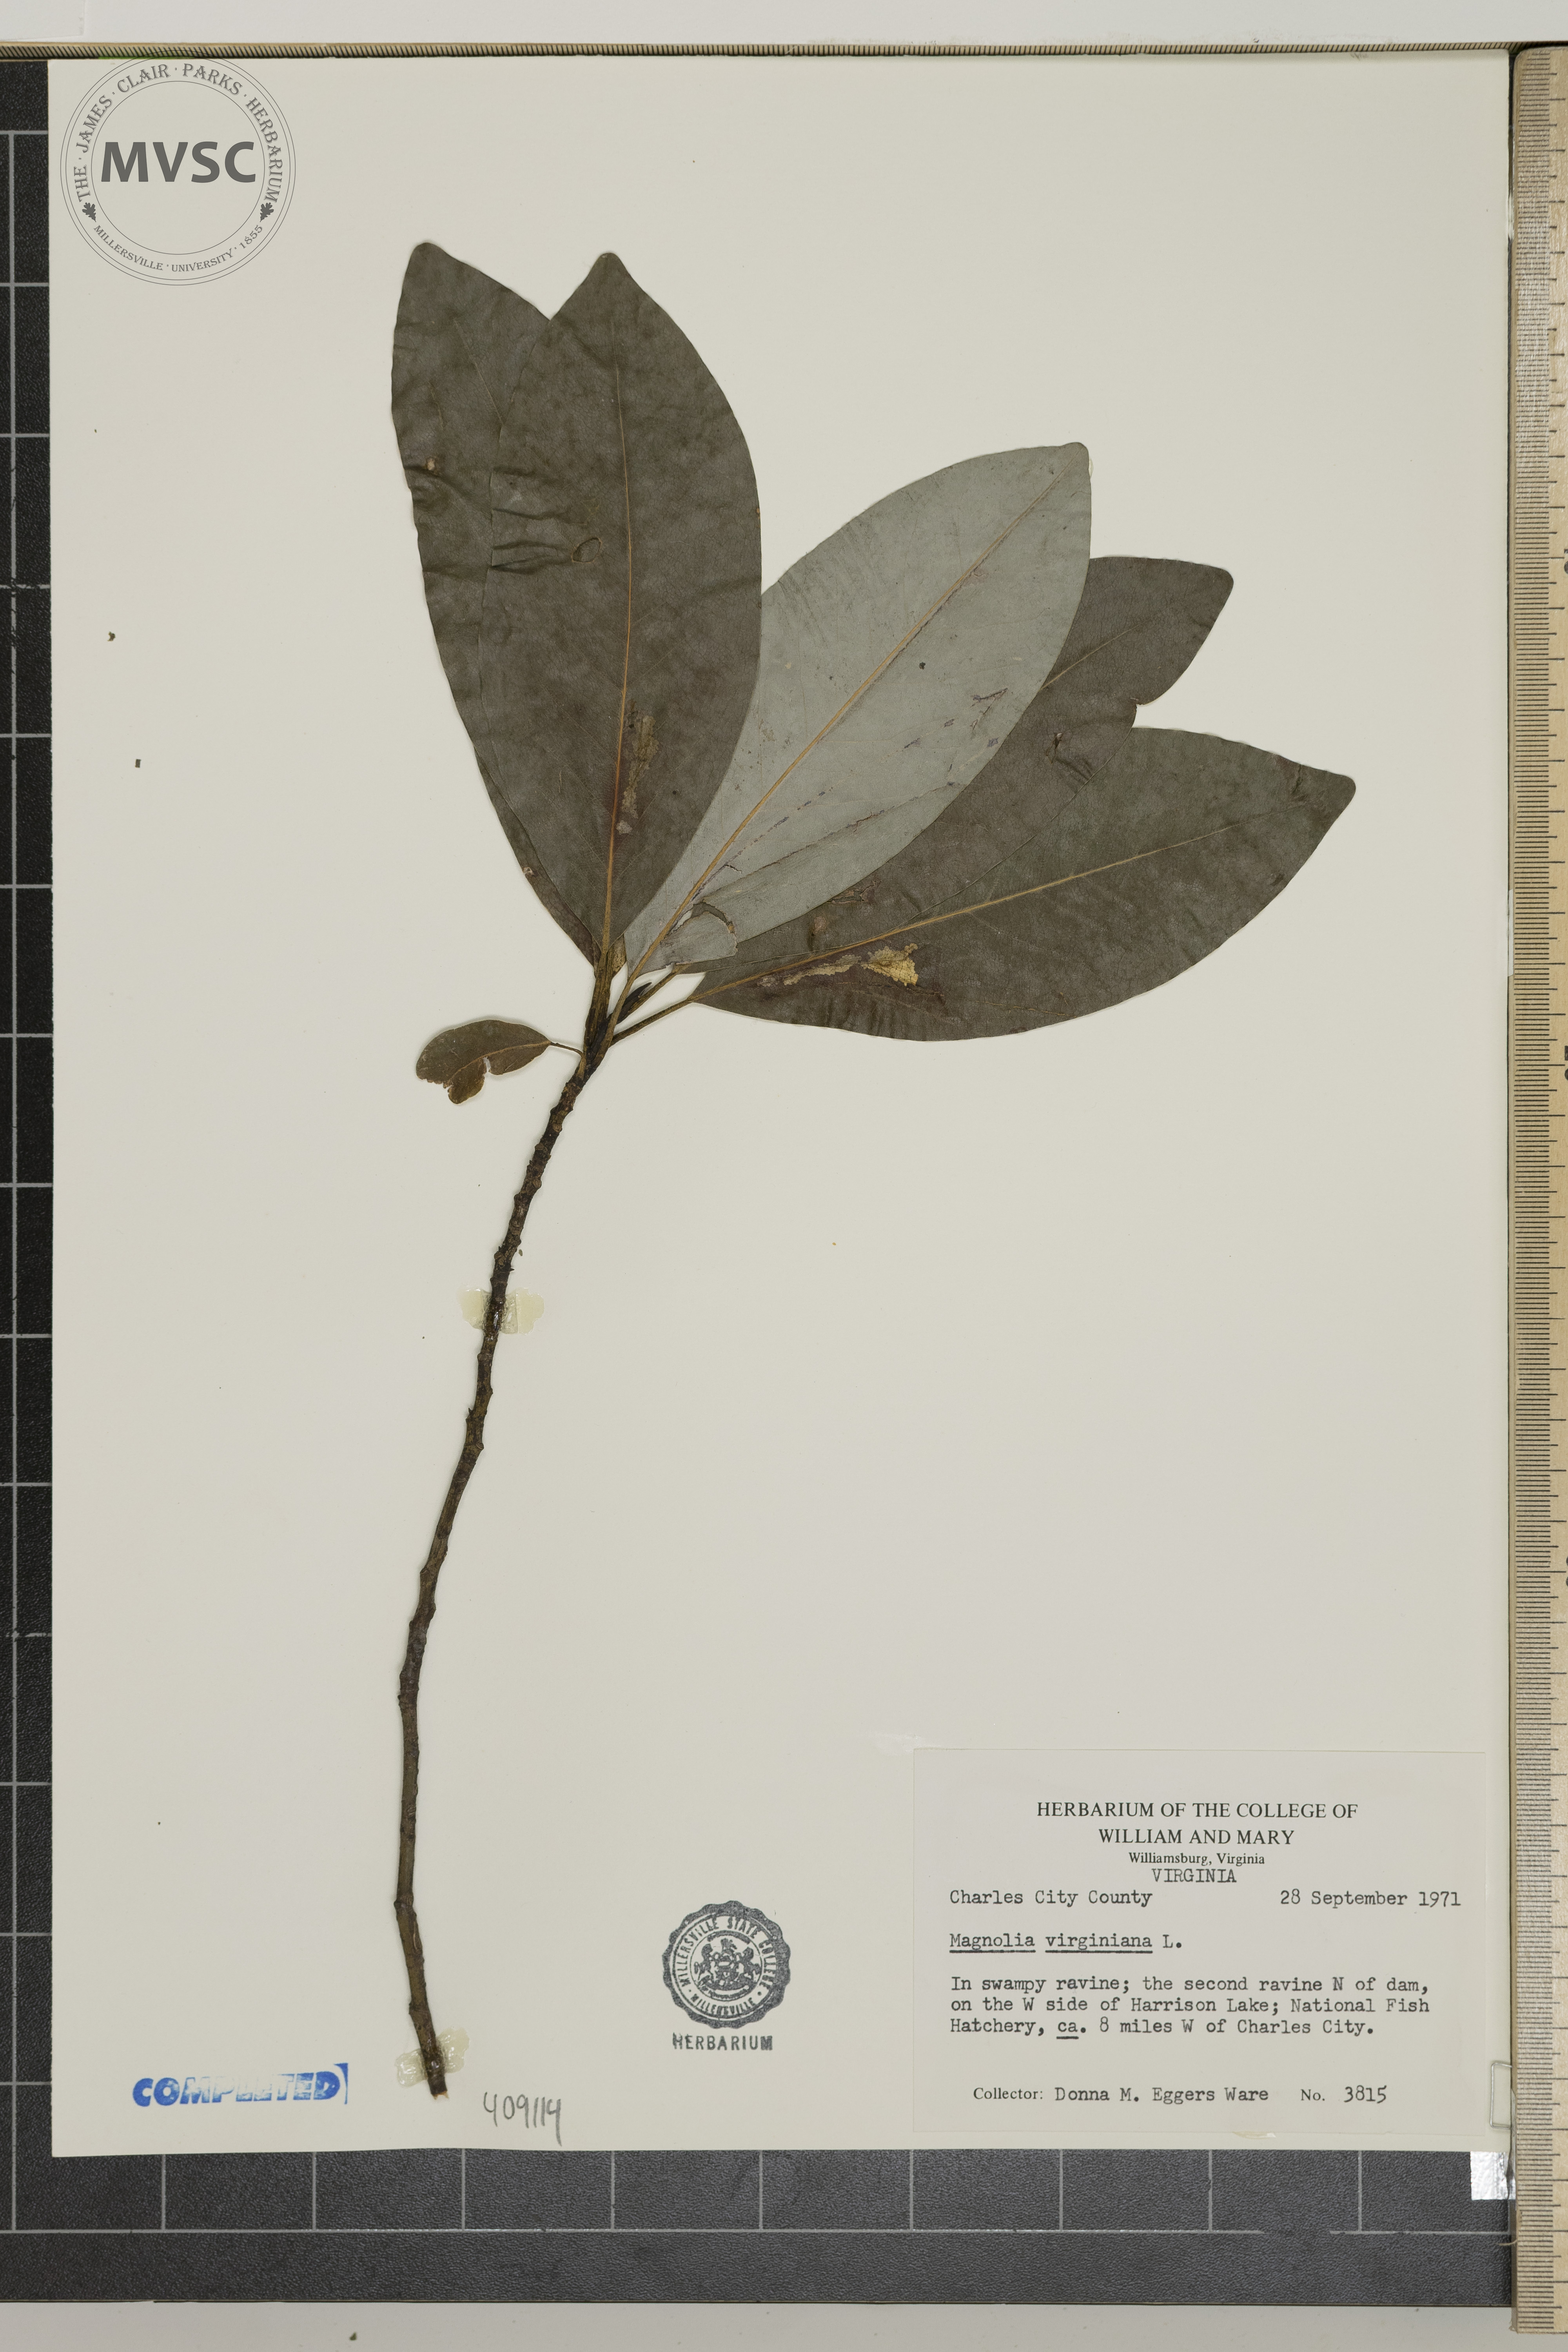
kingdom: Plantae
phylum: Tracheophyta
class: Magnoliopsida
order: Magnoliales
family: Magnoliaceae
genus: Magnolia
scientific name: Magnolia virginiana
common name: sweetbay
